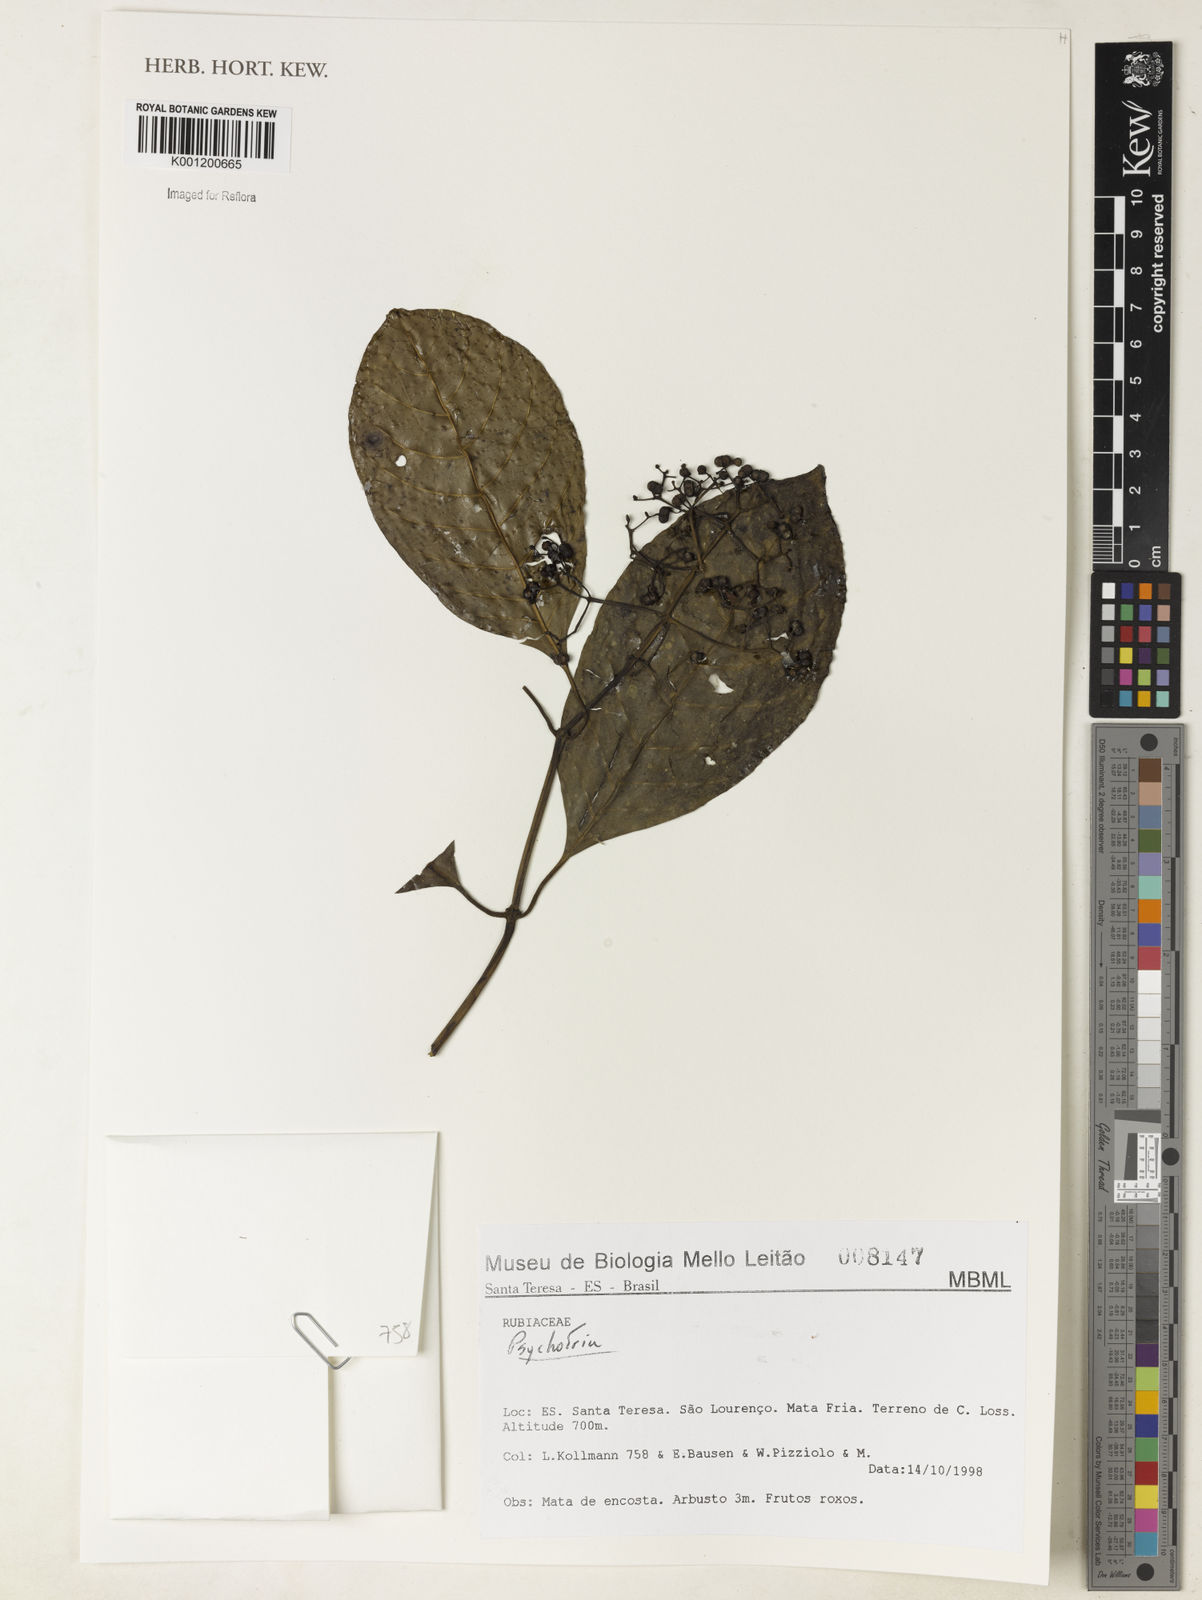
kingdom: Plantae
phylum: Tracheophyta
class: Magnoliopsida
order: Gentianales
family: Rubiaceae
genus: Psychotria
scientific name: Psychotria
